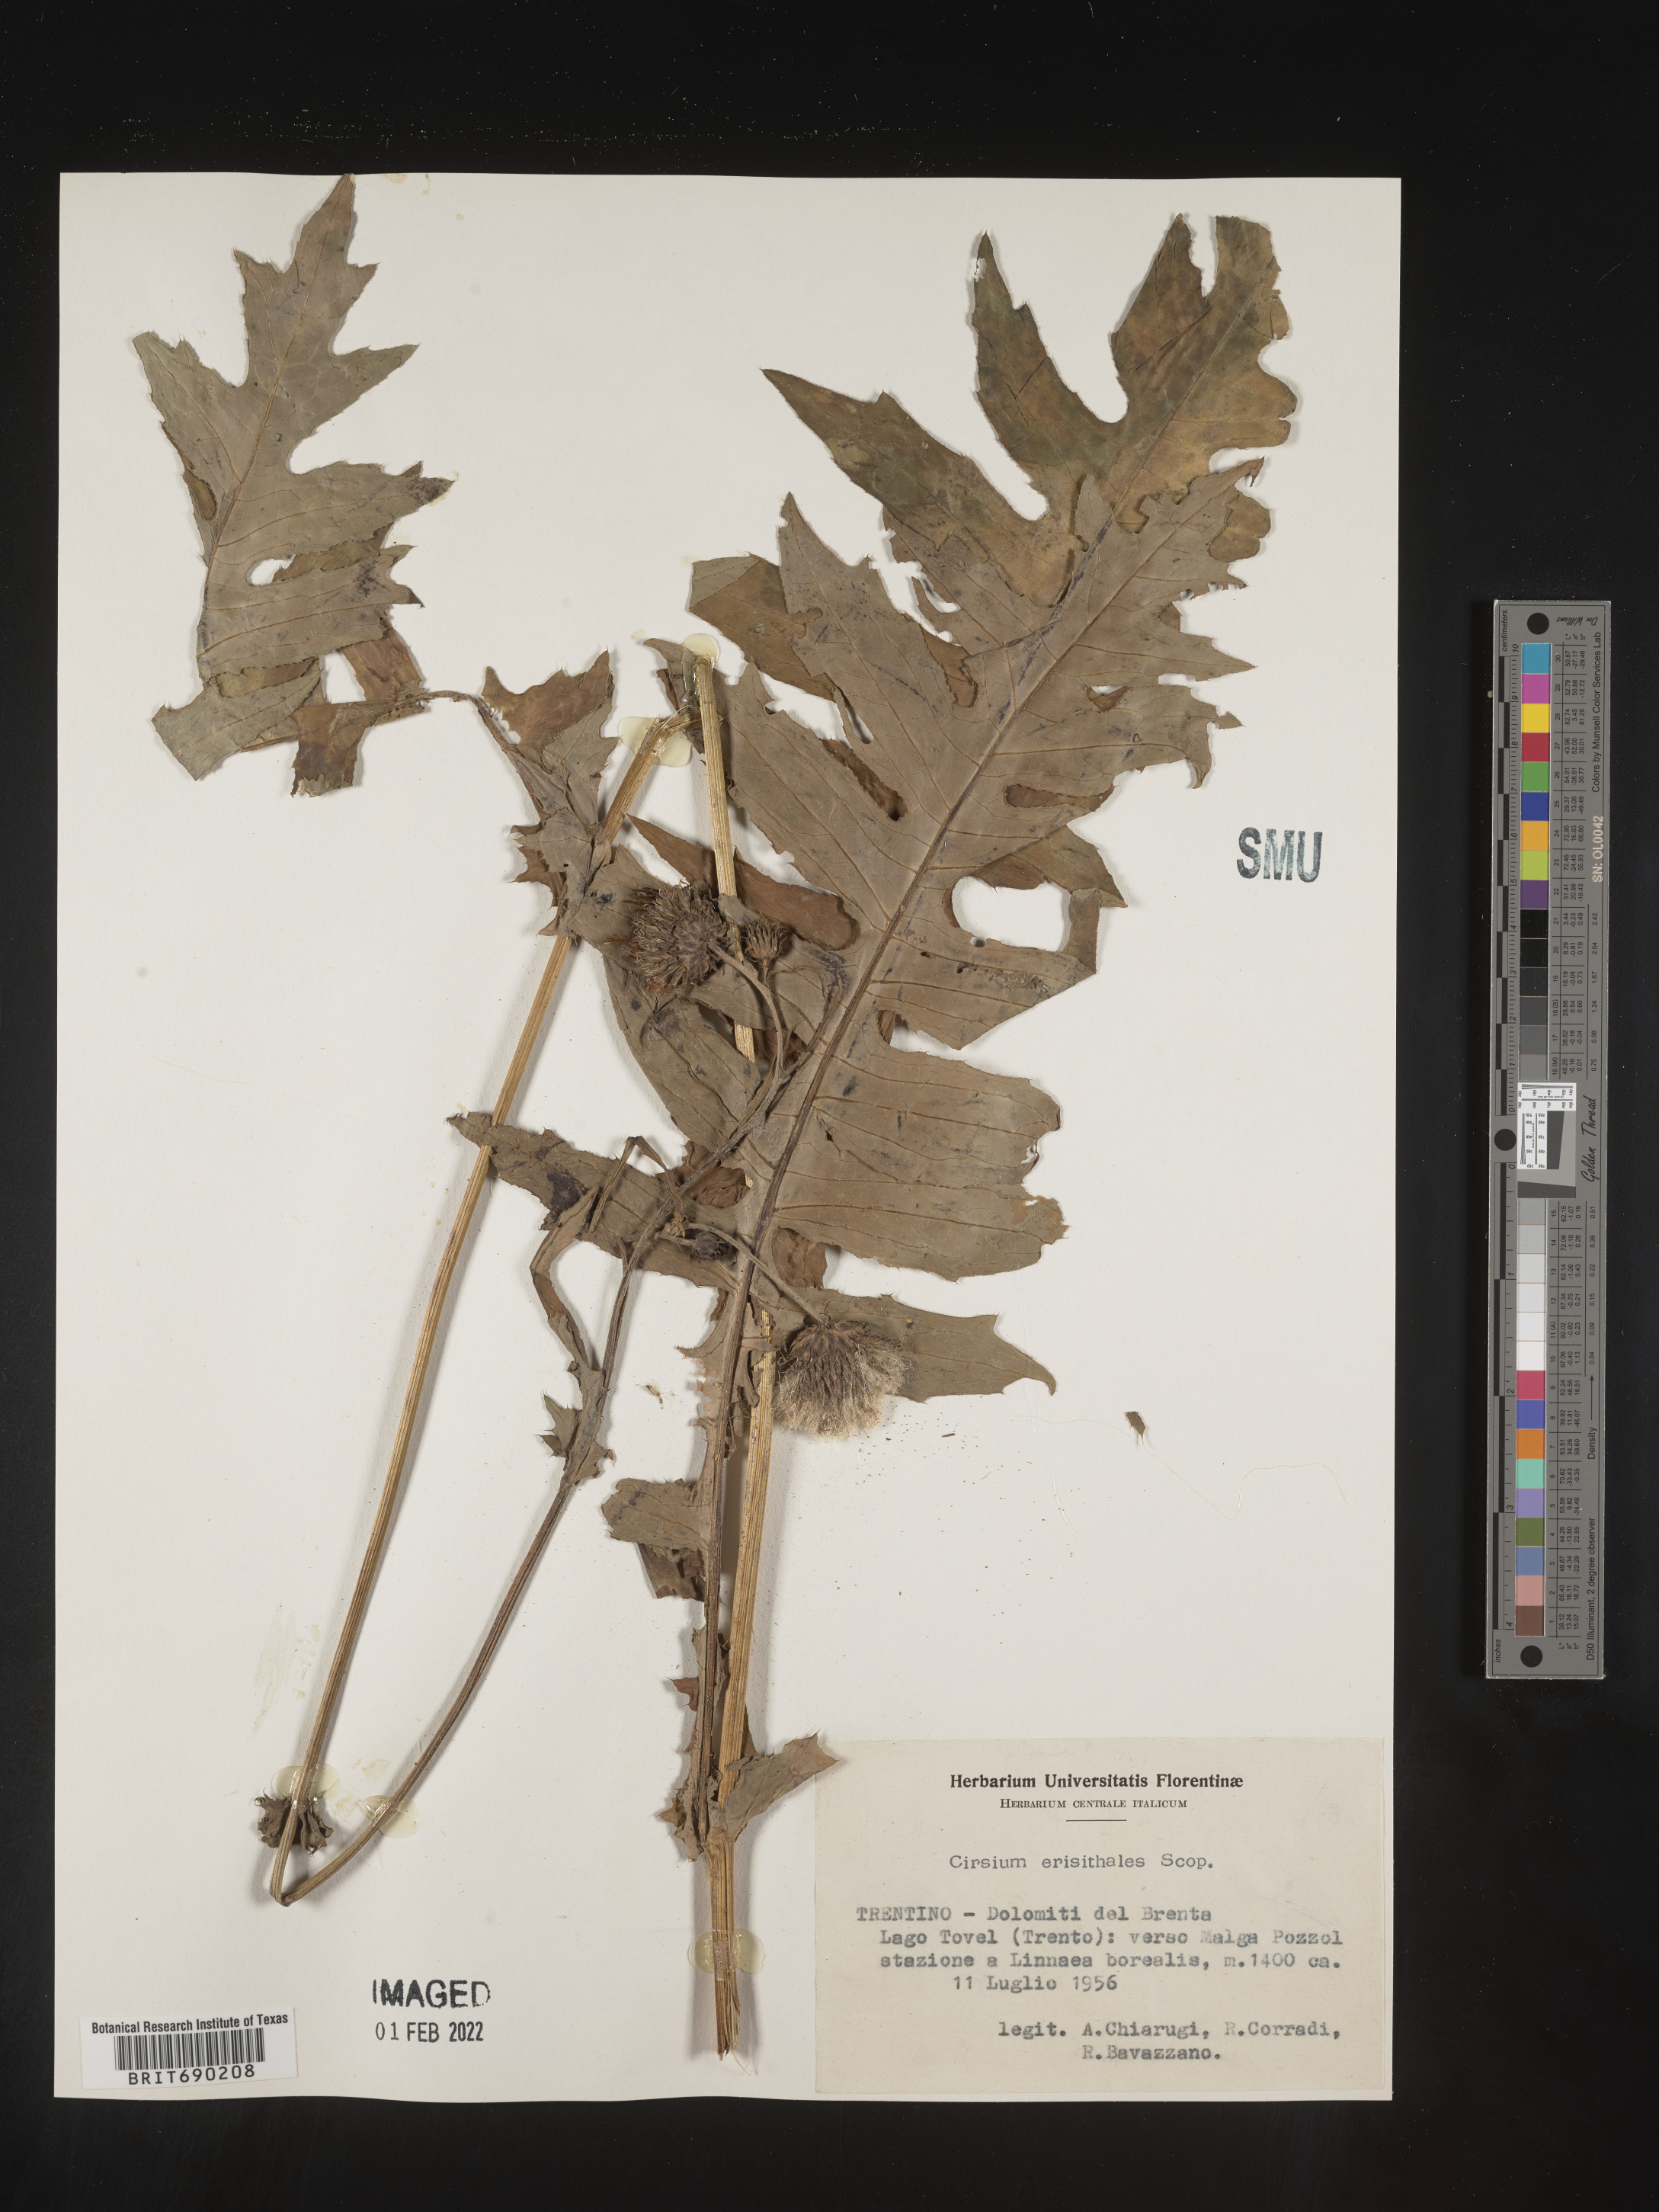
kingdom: Plantae
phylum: Tracheophyta
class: Magnoliopsida
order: Asterales
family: Asteraceae
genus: Cirsium
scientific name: Cirsium
